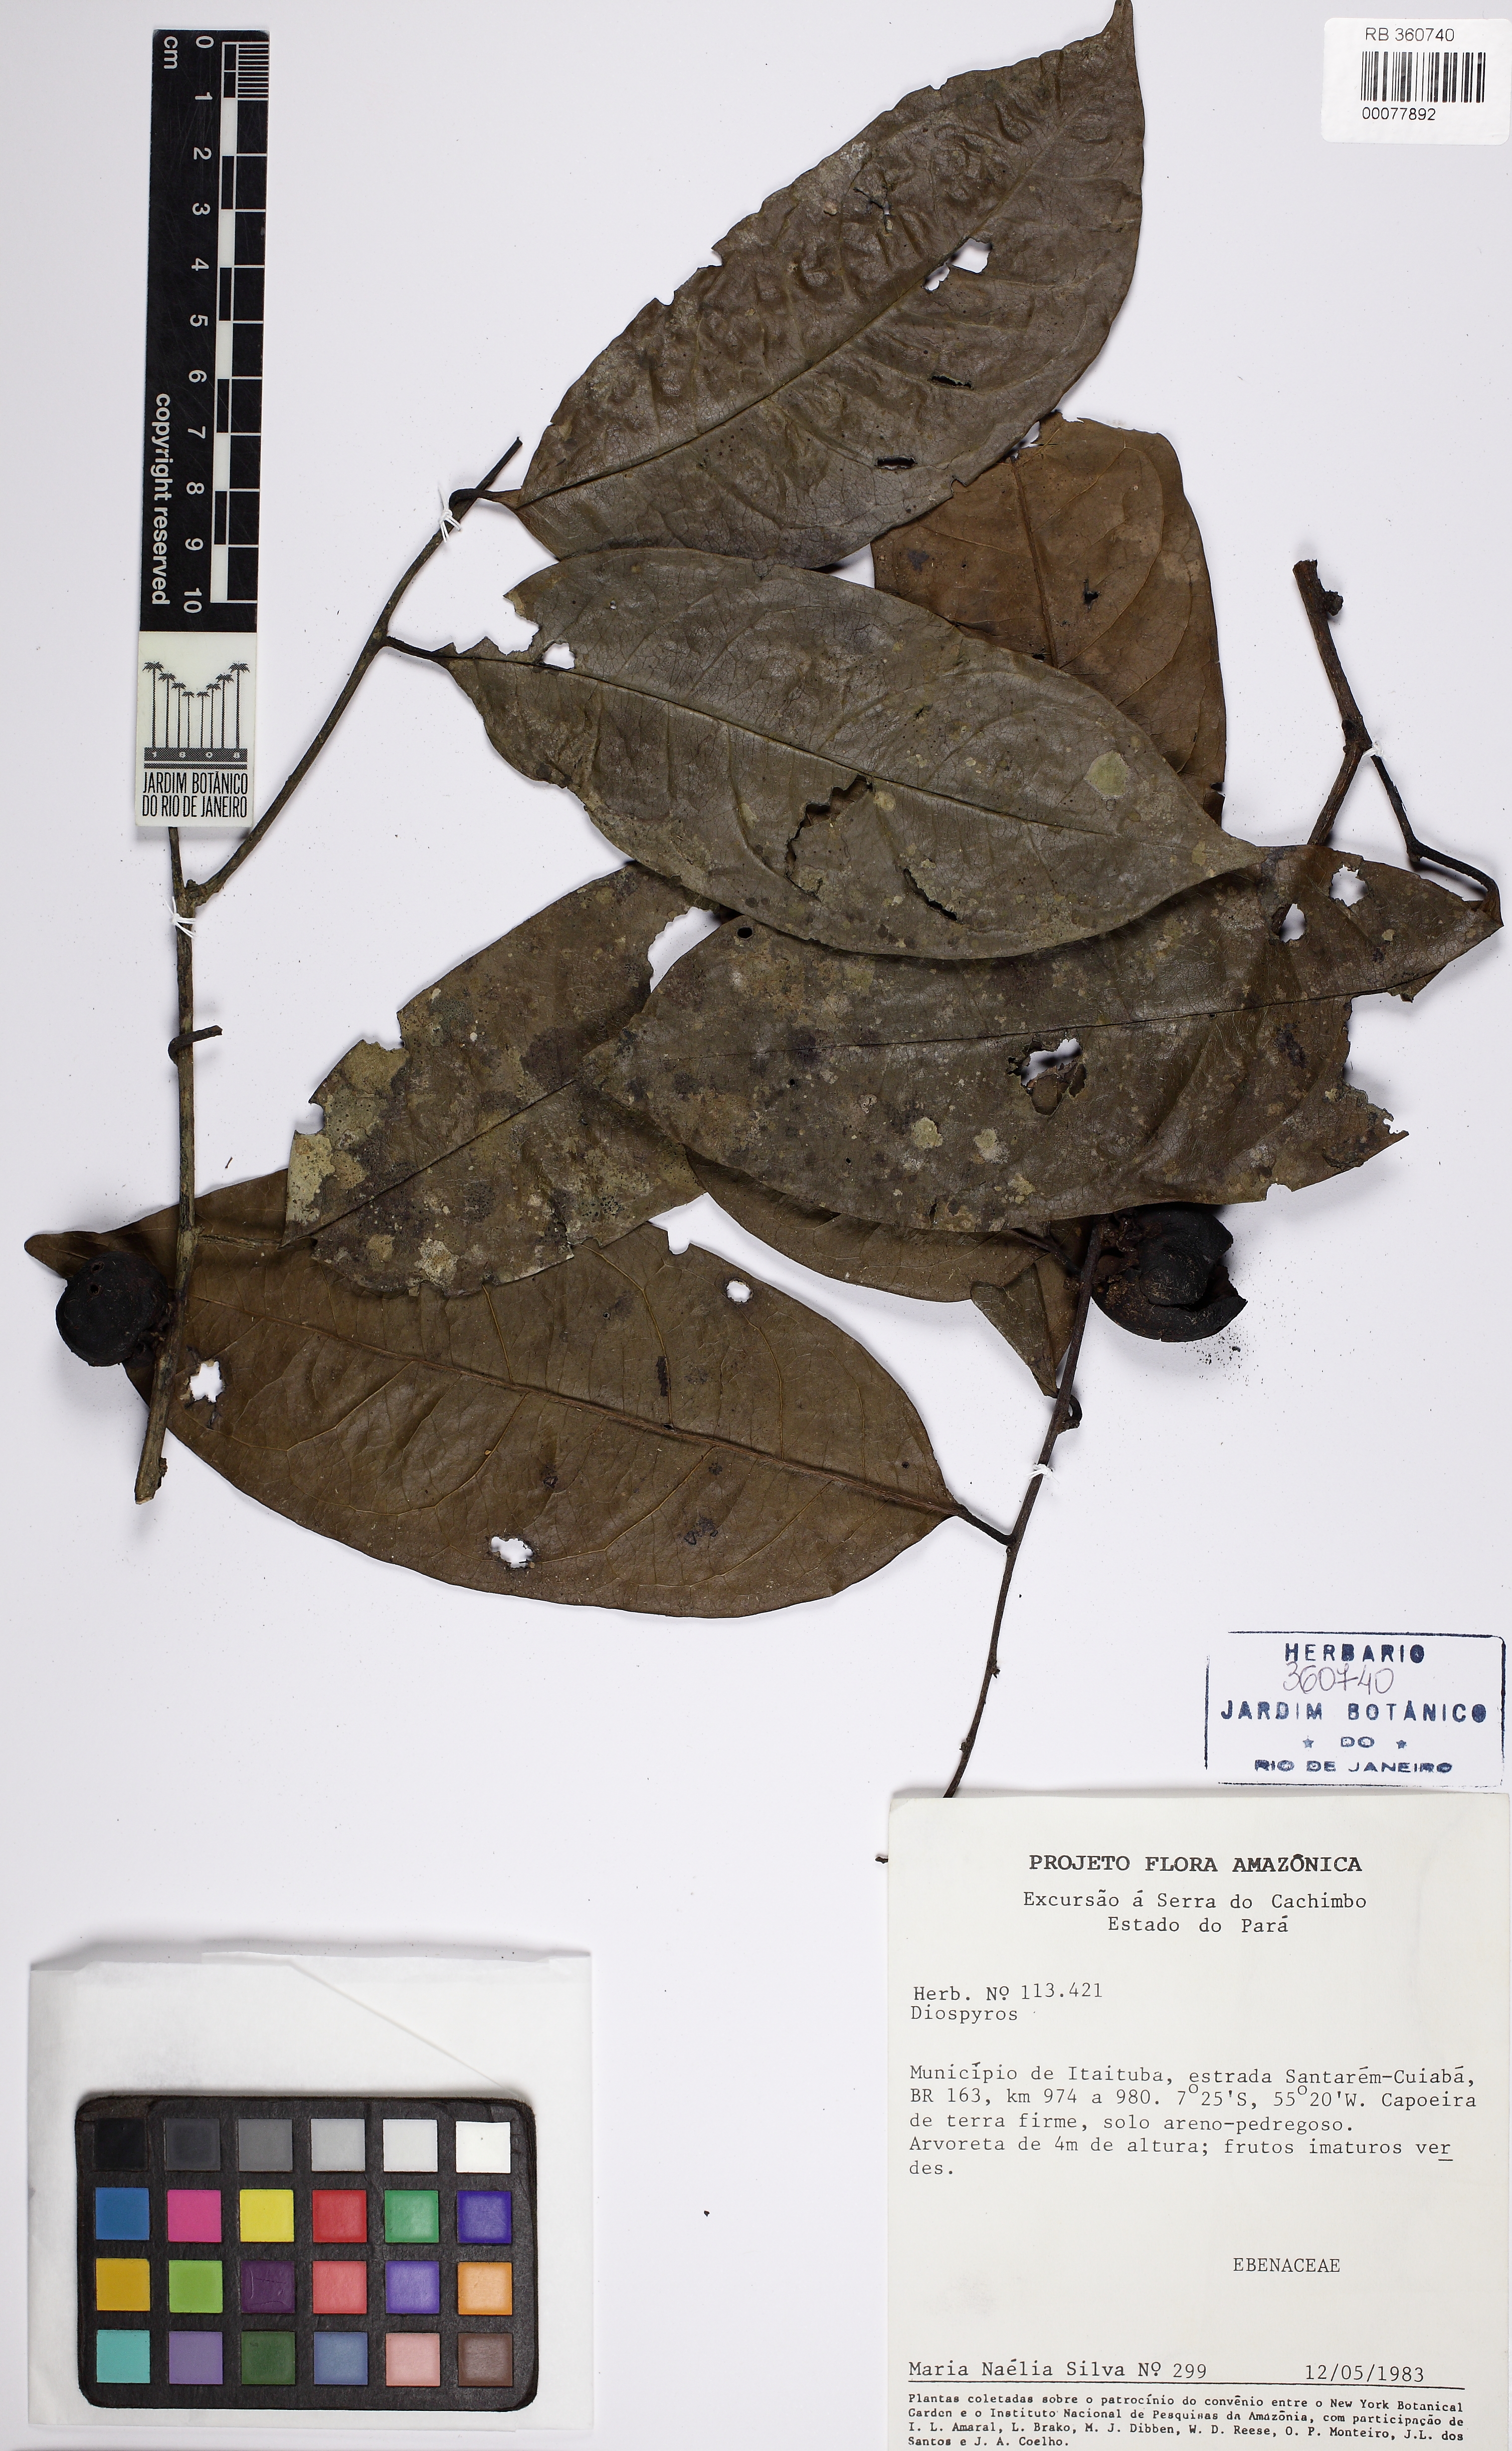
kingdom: Plantae
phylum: Tracheophyta
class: Magnoliopsida
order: Ericales
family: Ebenaceae
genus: Diospyros
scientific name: Diospyros
